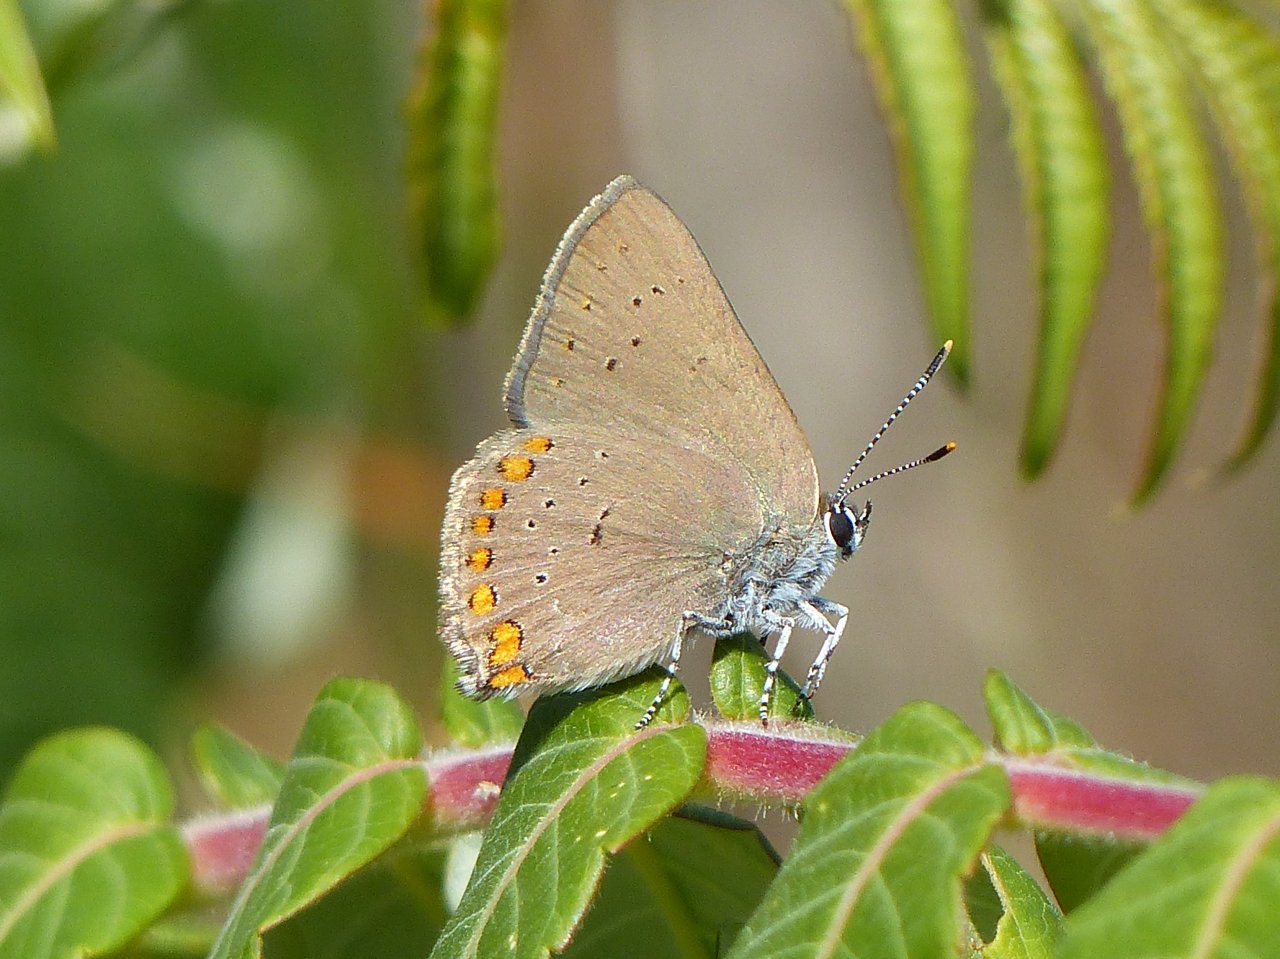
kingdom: Animalia
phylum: Arthropoda
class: Insecta
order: Lepidoptera
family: Lycaenidae
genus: Harkenclenus
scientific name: Harkenclenus titus
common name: Coral Hairstreak
